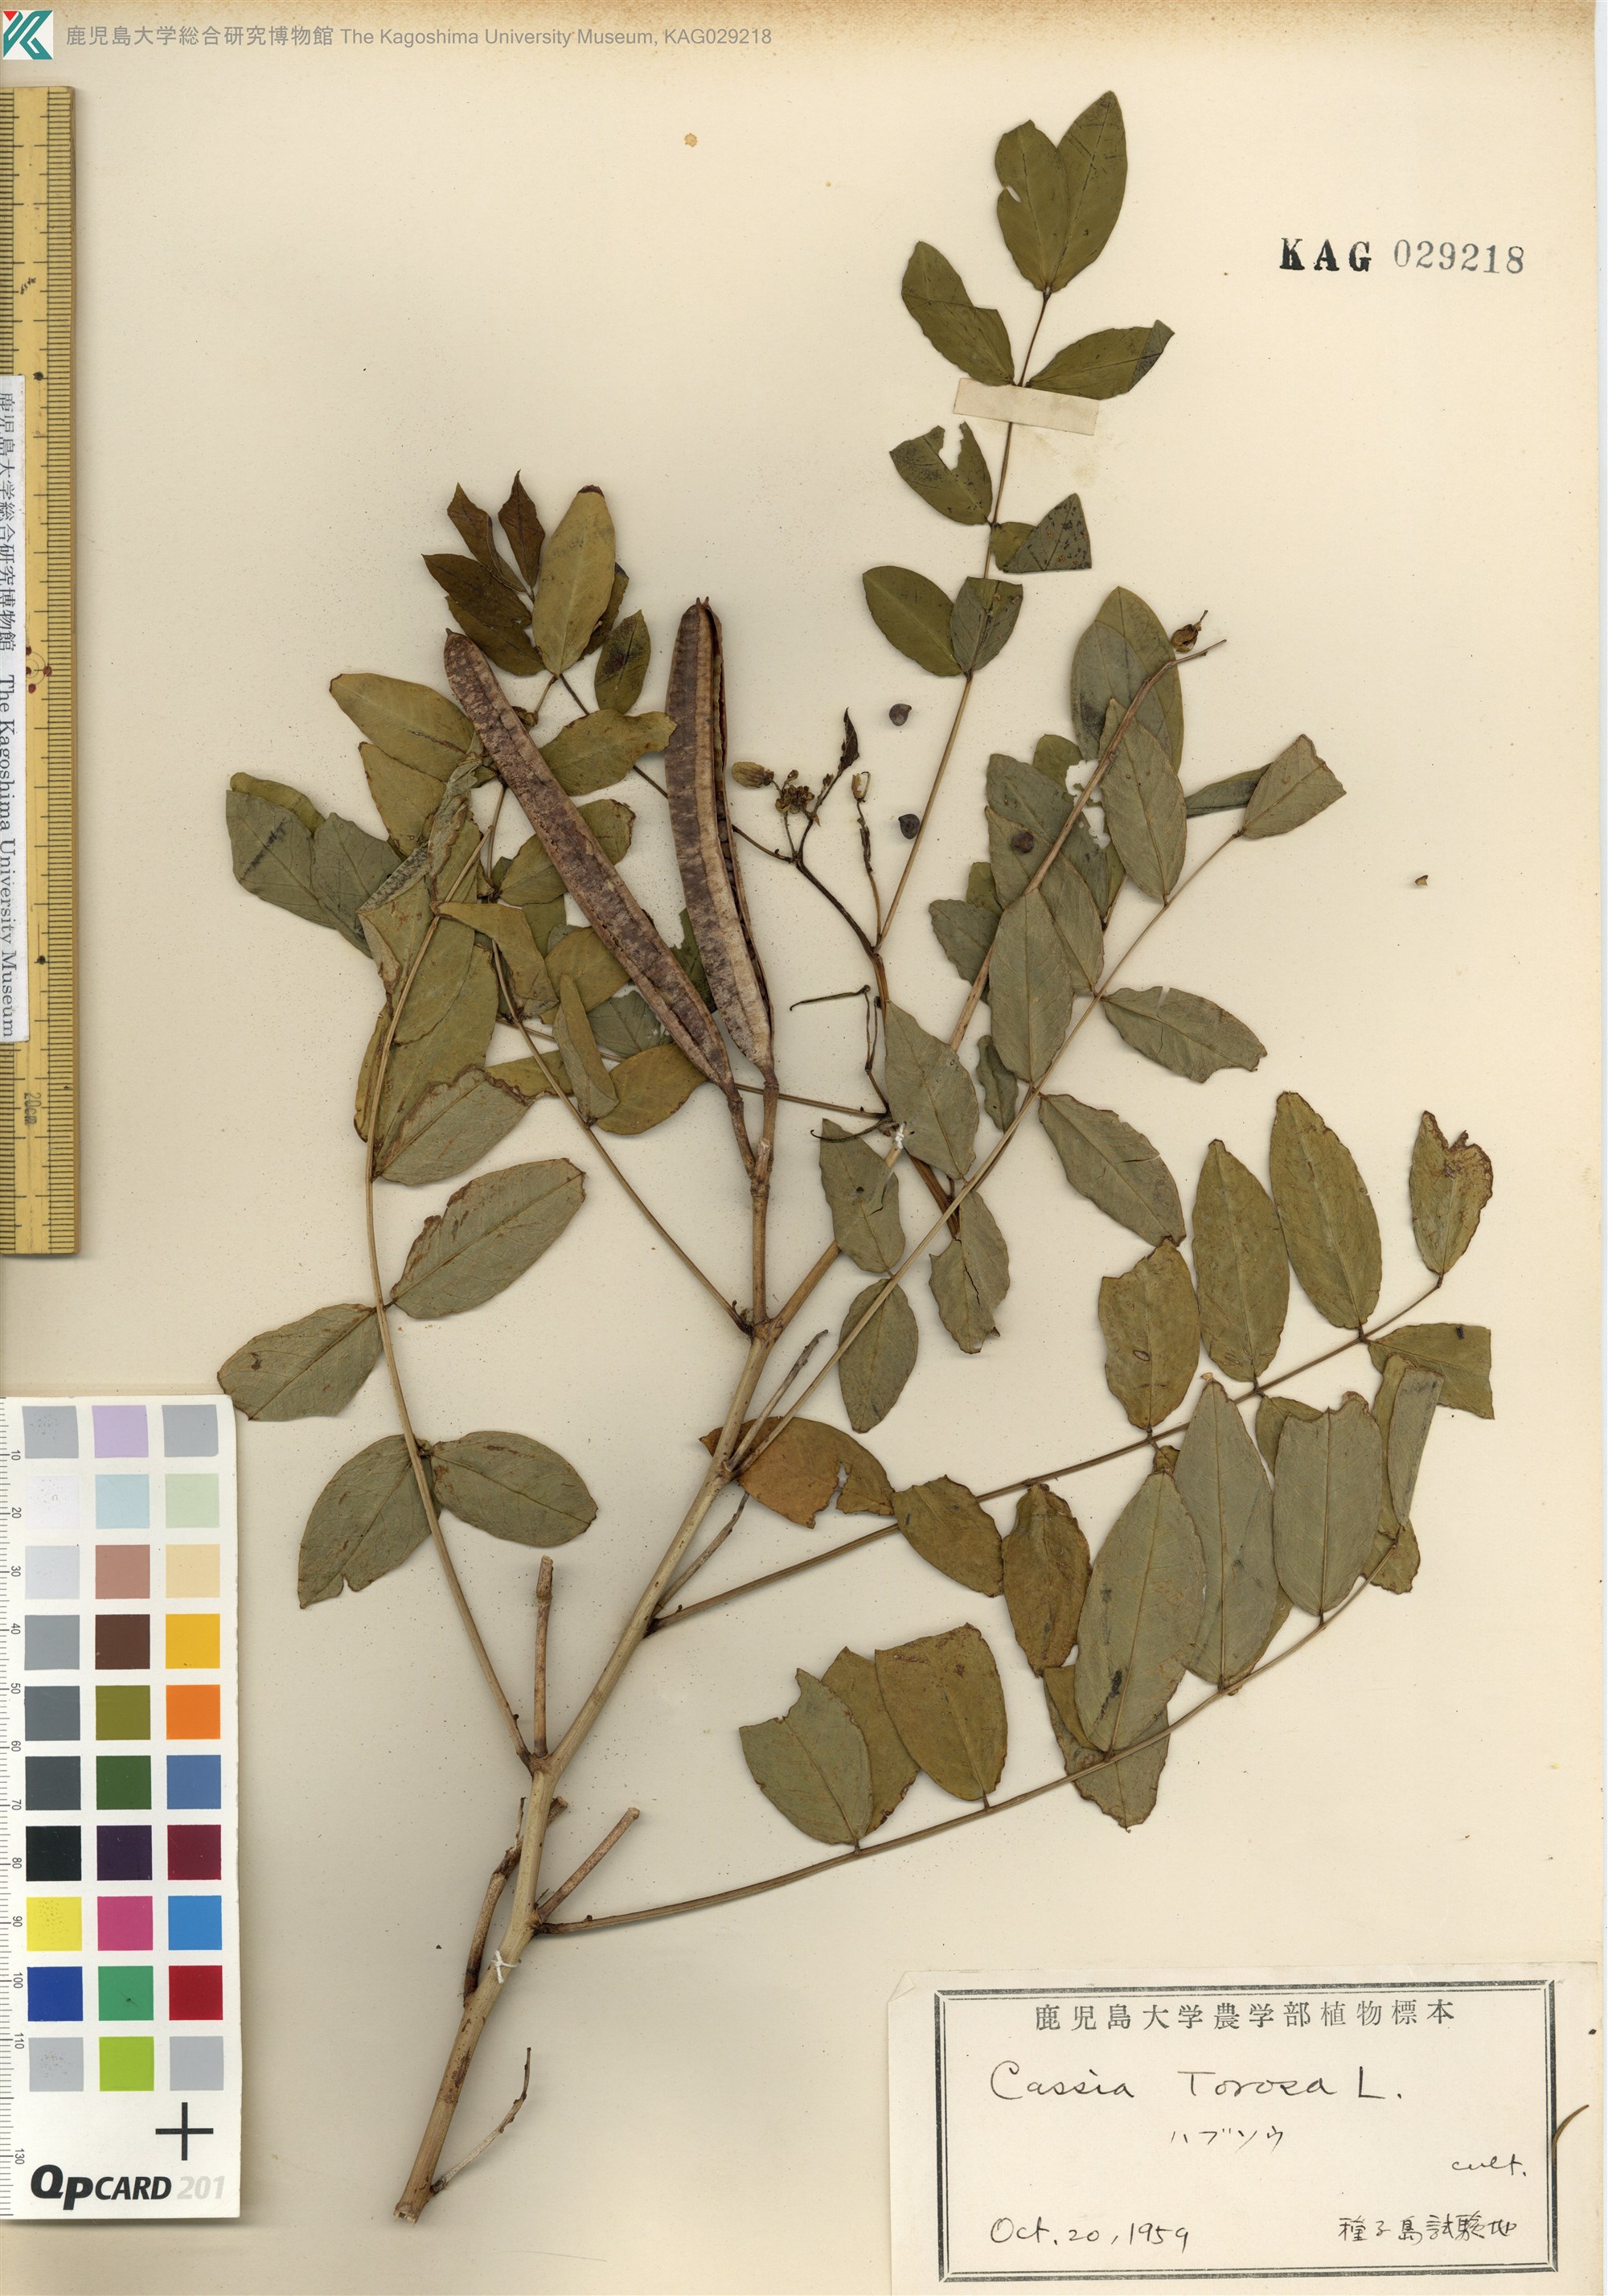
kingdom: Plantae
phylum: Tracheophyta
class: Magnoliopsida
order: Fabales
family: Fabaceae
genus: Senna
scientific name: Senna occidentalis
